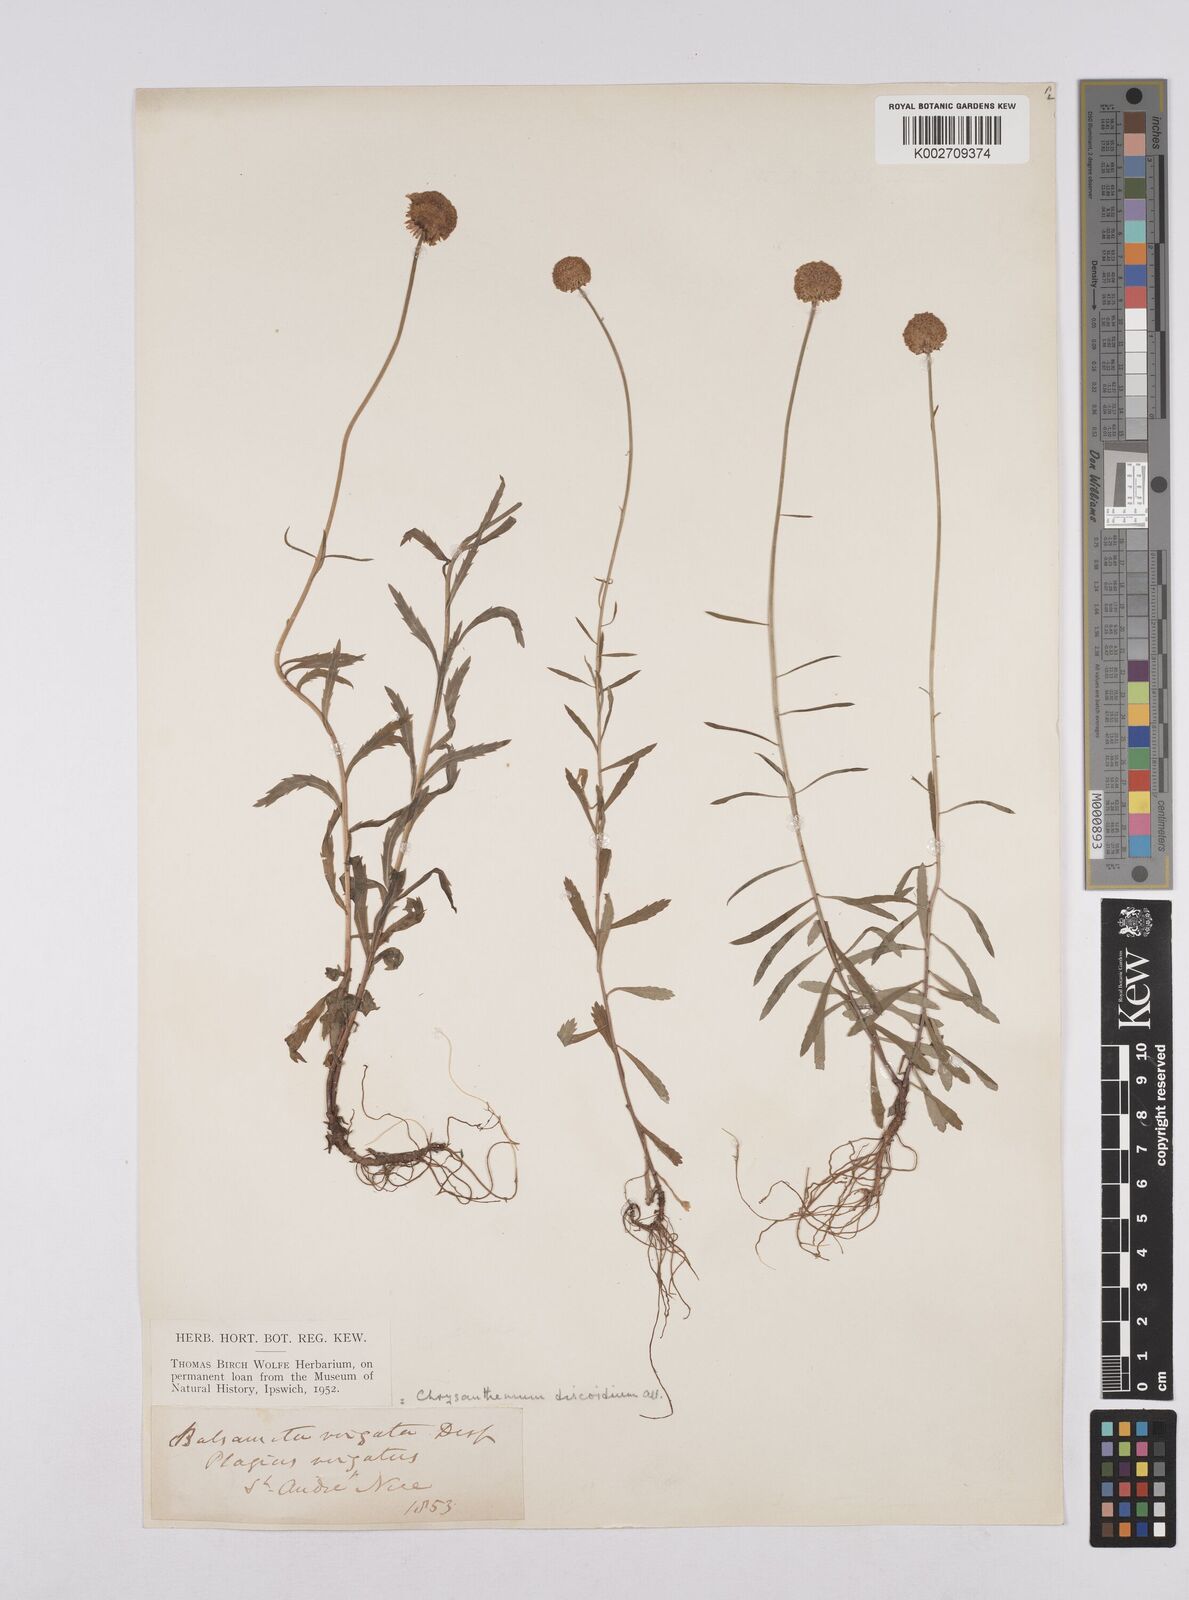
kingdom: Plantae
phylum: Tracheophyta
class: Magnoliopsida
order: Asterales
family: Asteraceae
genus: Leucanthemum
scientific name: Leucanthemum vulgare
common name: Oxeye daisy
